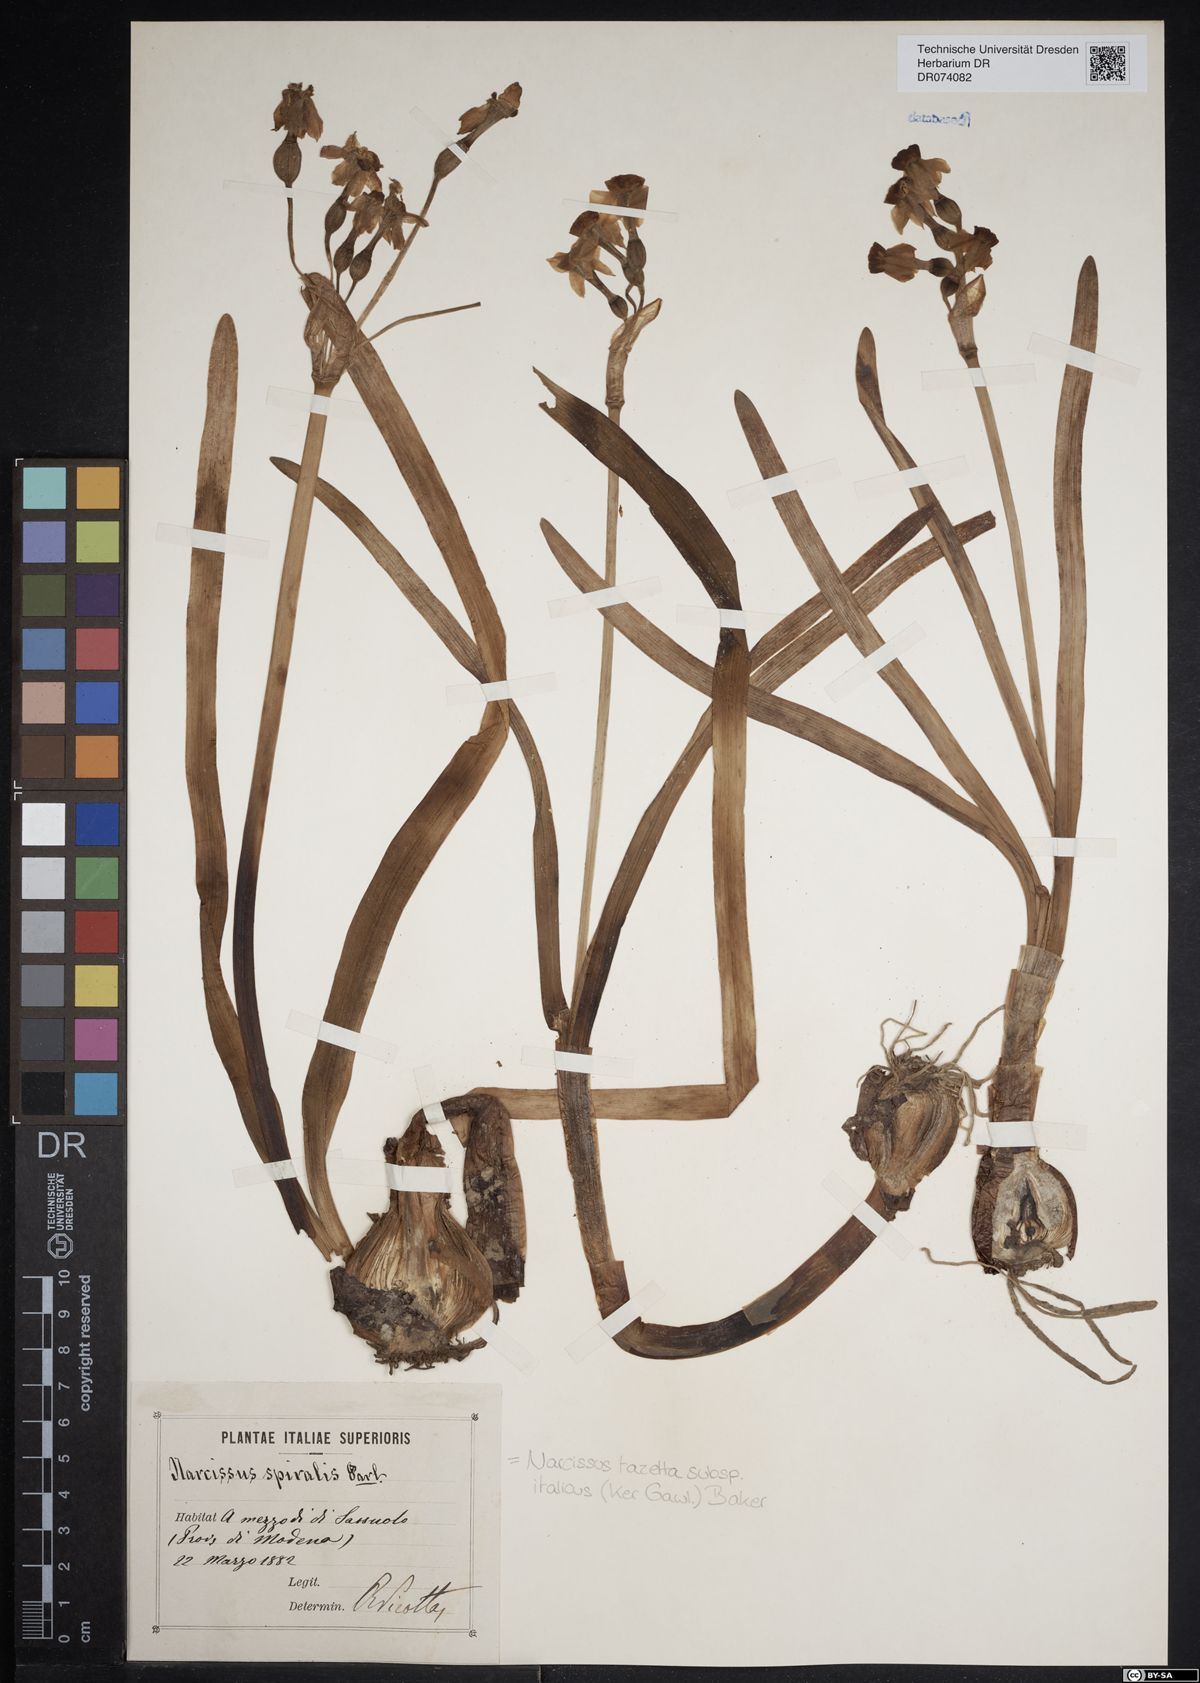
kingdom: Plantae
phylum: Tracheophyta
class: Liliopsida
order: Asparagales
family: Amaryllidaceae
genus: Narcissus
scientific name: Narcissus tazetta
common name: Bunch-flowered daffodil
